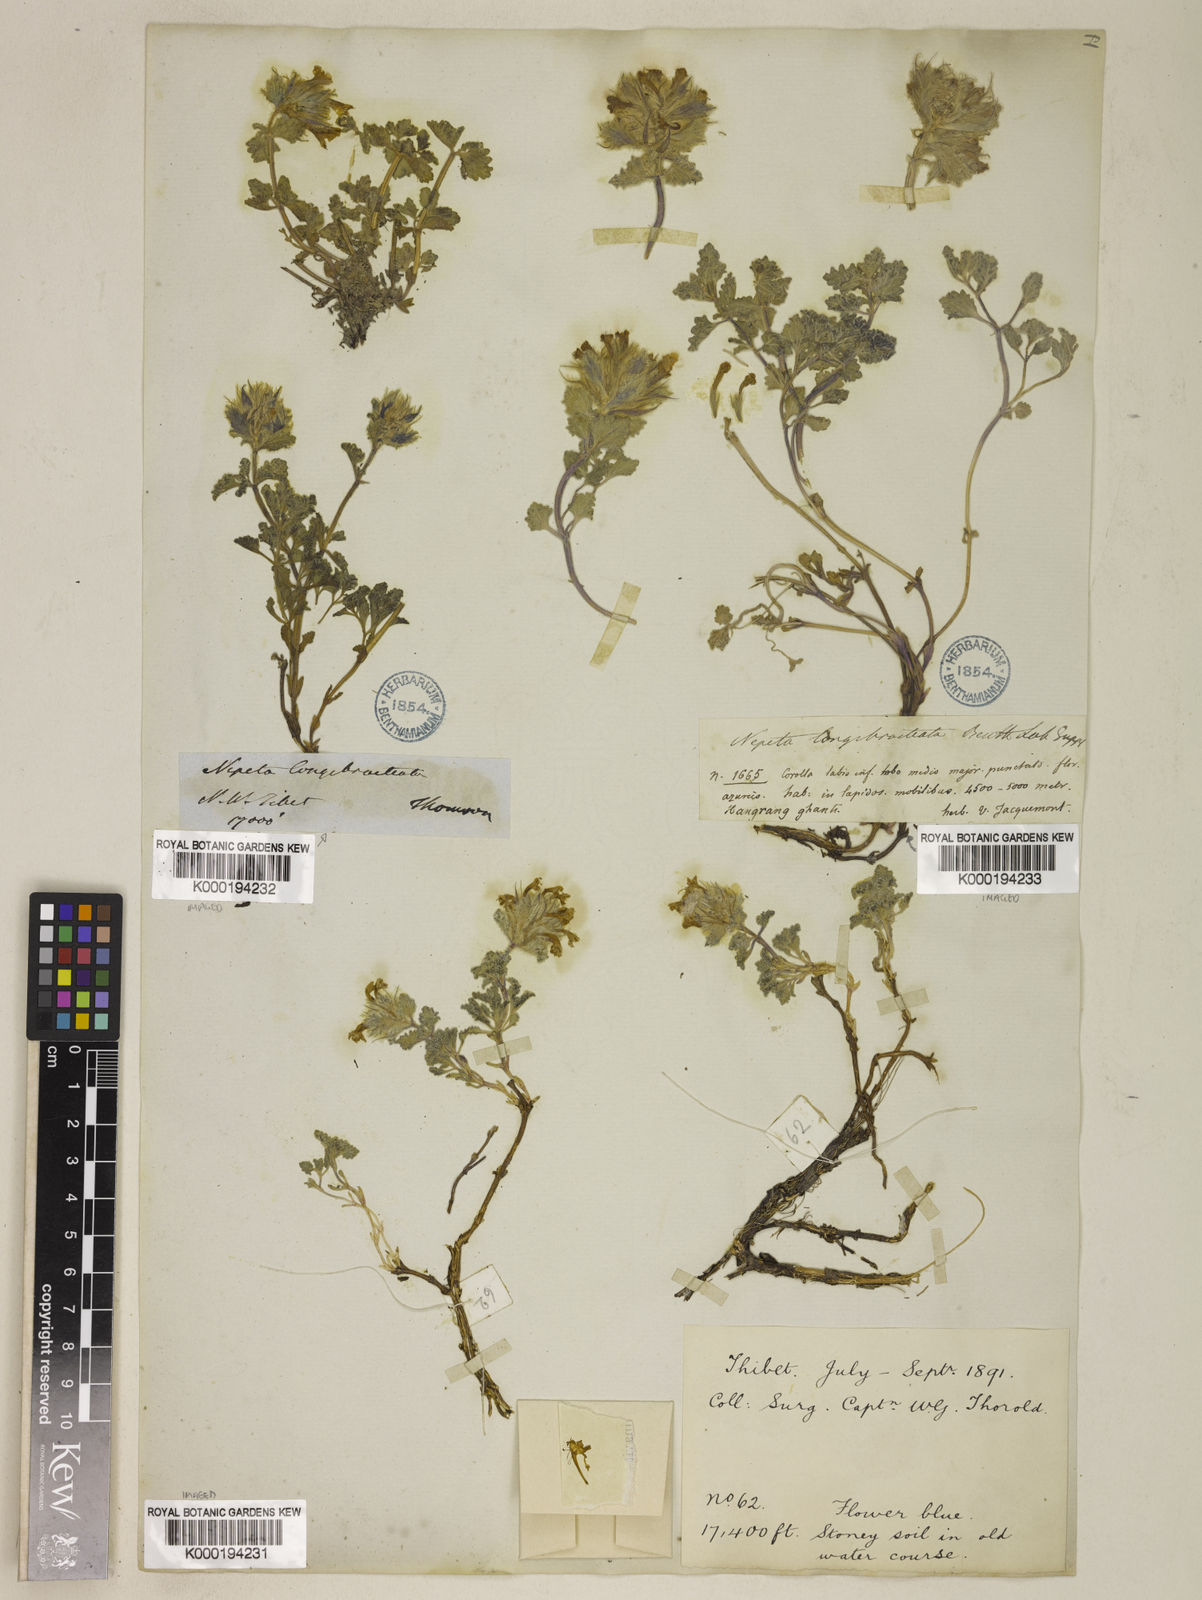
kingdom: Plantae
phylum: Tracheophyta
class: Magnoliopsida
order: Lamiales
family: Lamiaceae
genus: Nepeta
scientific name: Nepeta longibracteata
